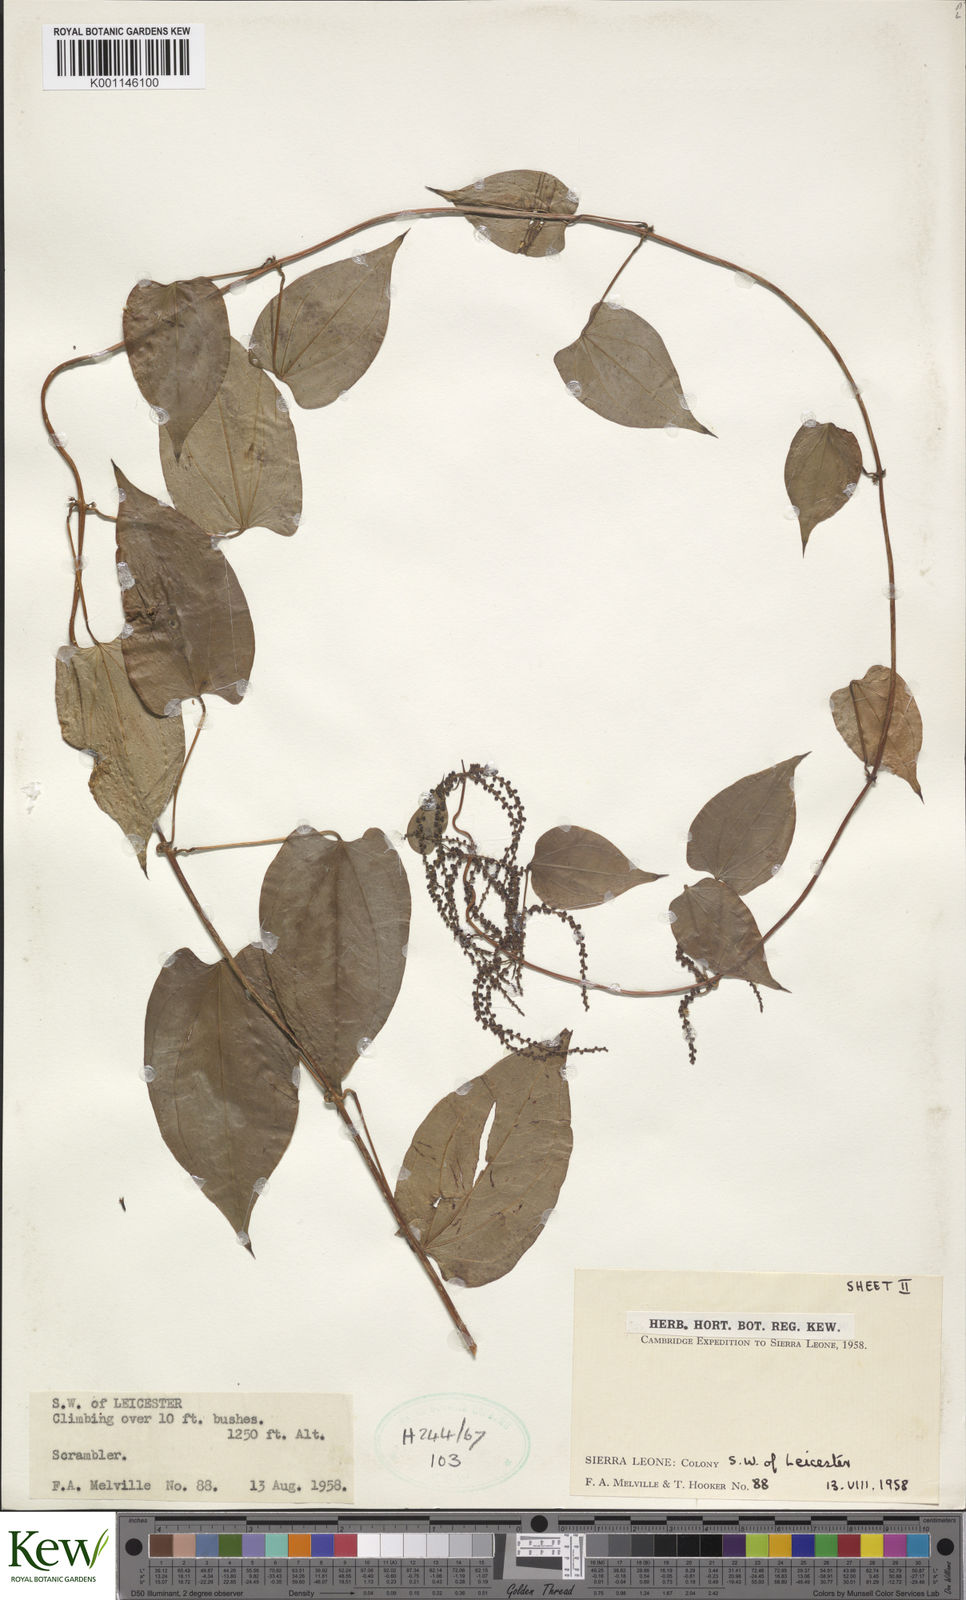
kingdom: Plantae
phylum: Tracheophyta
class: Liliopsida
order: Dioscoreales
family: Dioscoreaceae
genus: Dioscorea
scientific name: Dioscorea
